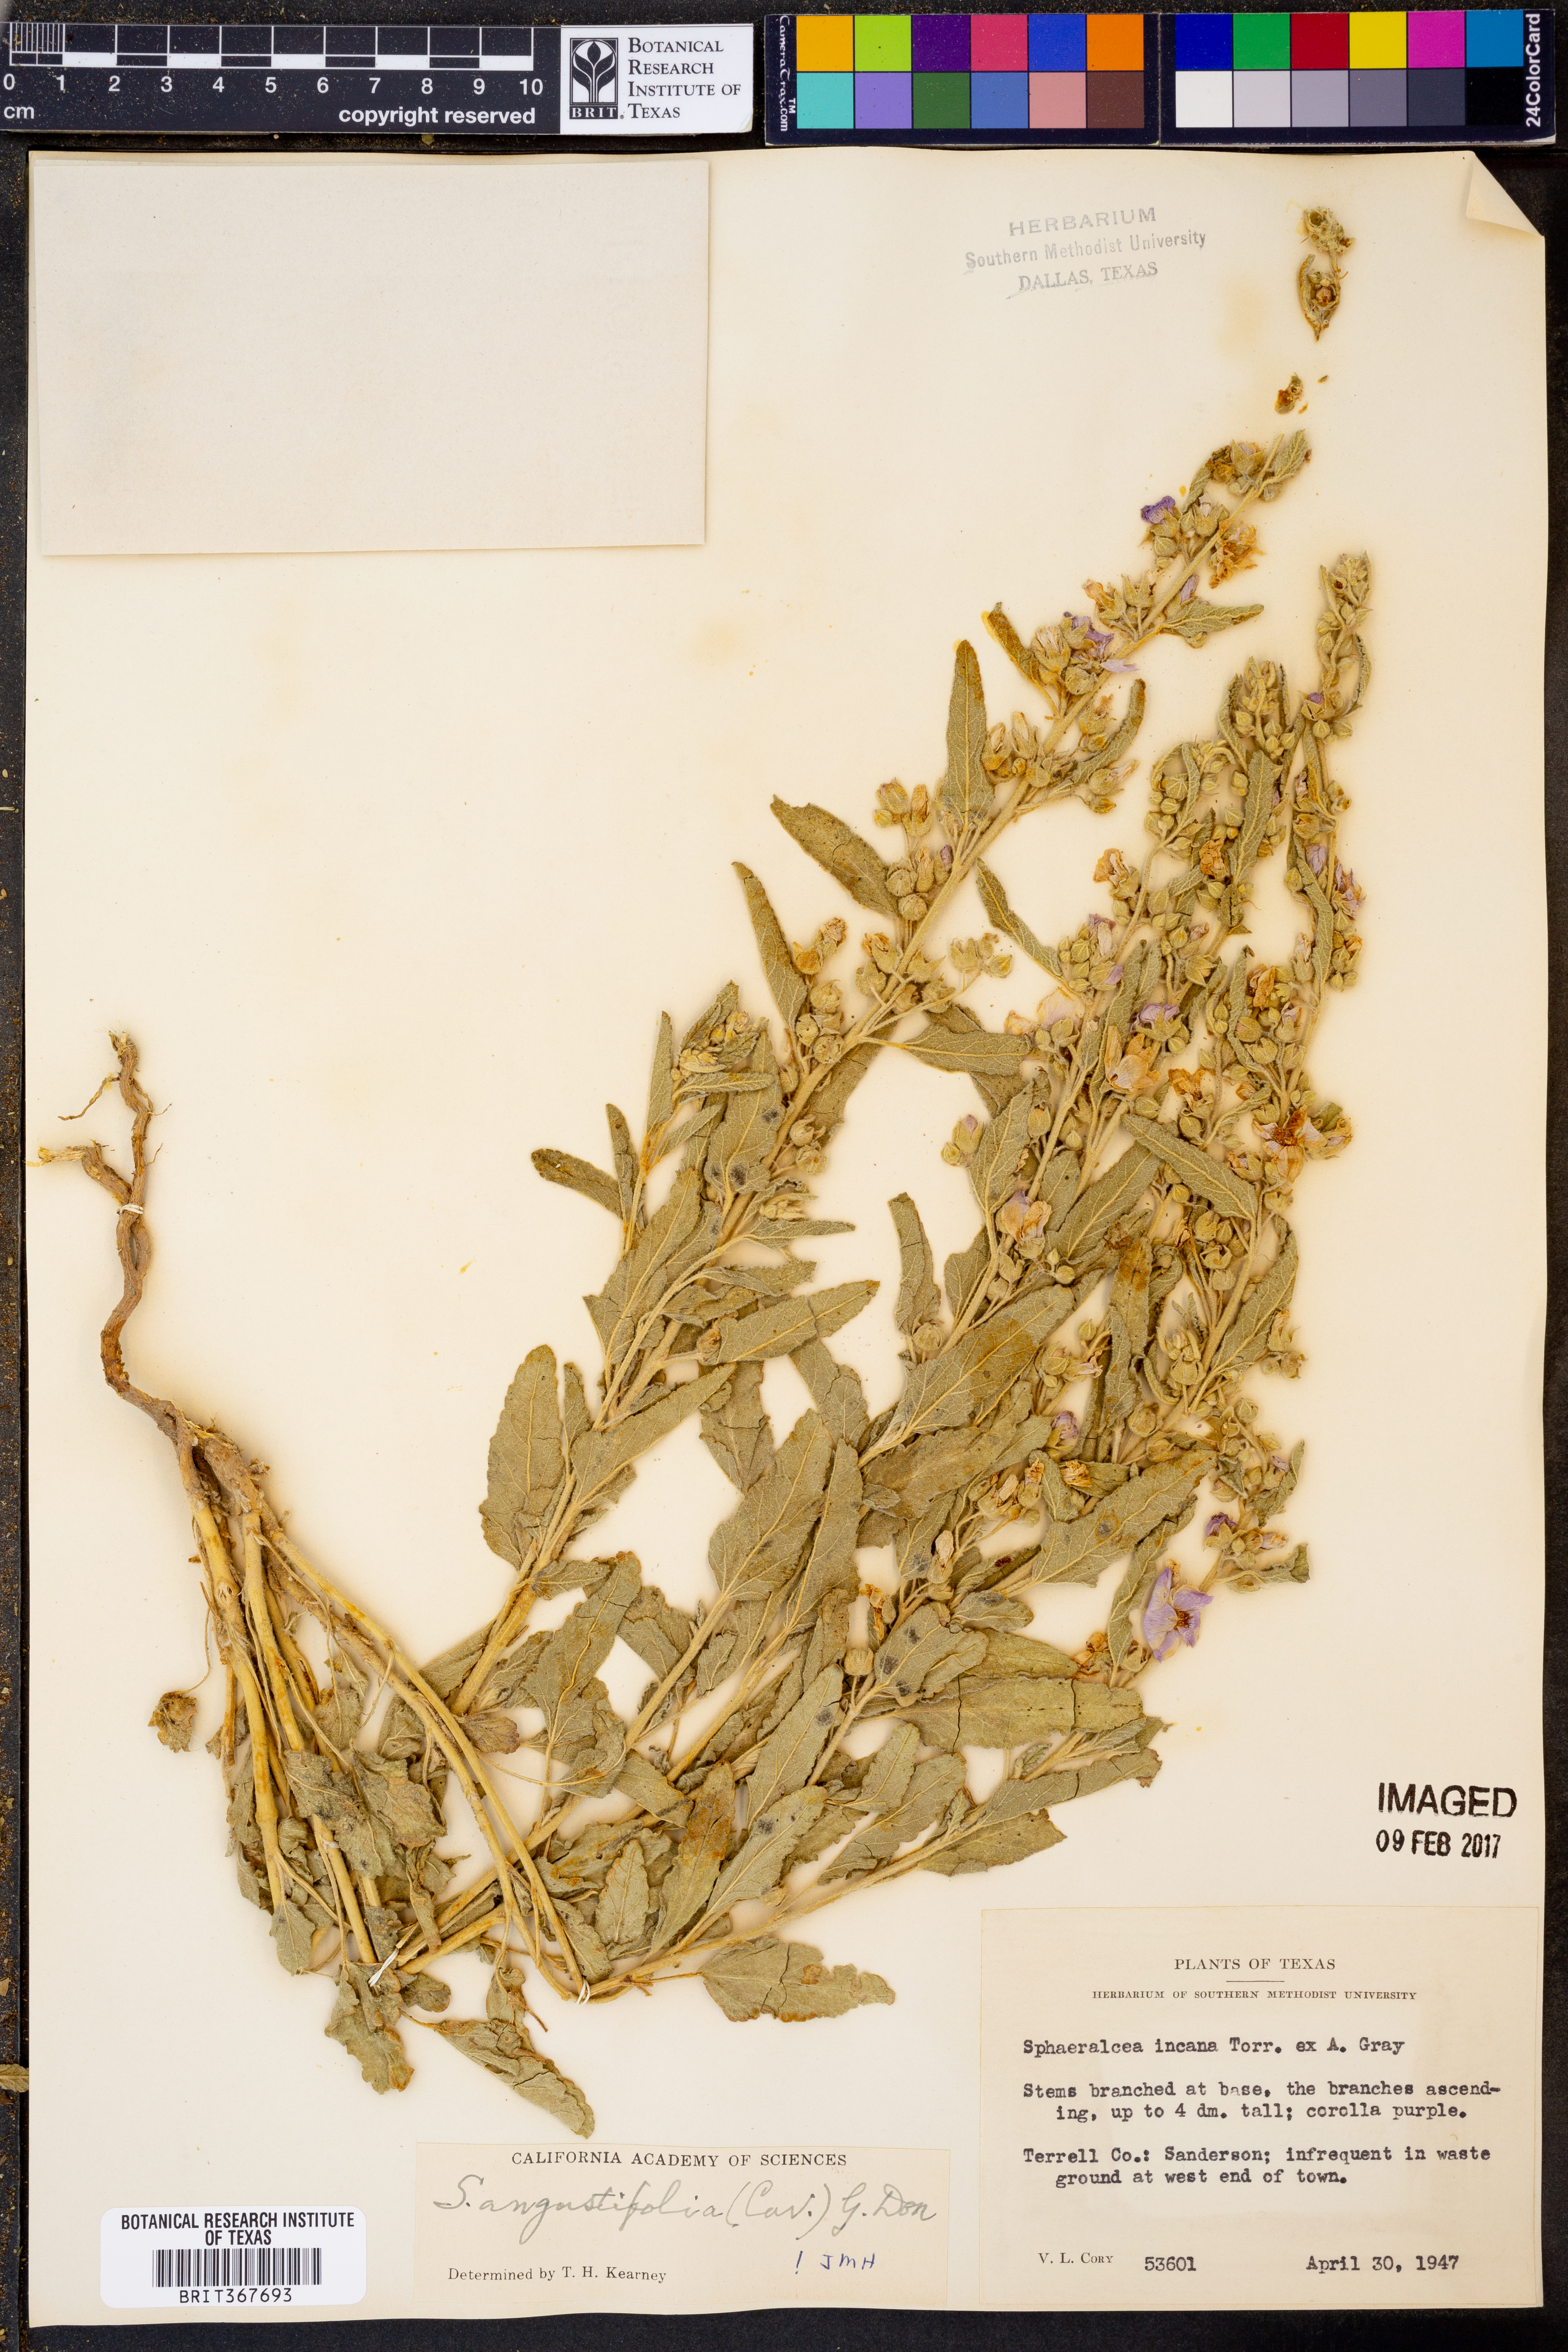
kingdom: Plantae
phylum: Tracheophyta
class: Magnoliopsida
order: Malvales
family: Malvaceae
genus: Sphaeralcea
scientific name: Sphaeralcea angustifolia
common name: Copper globe-mallow
